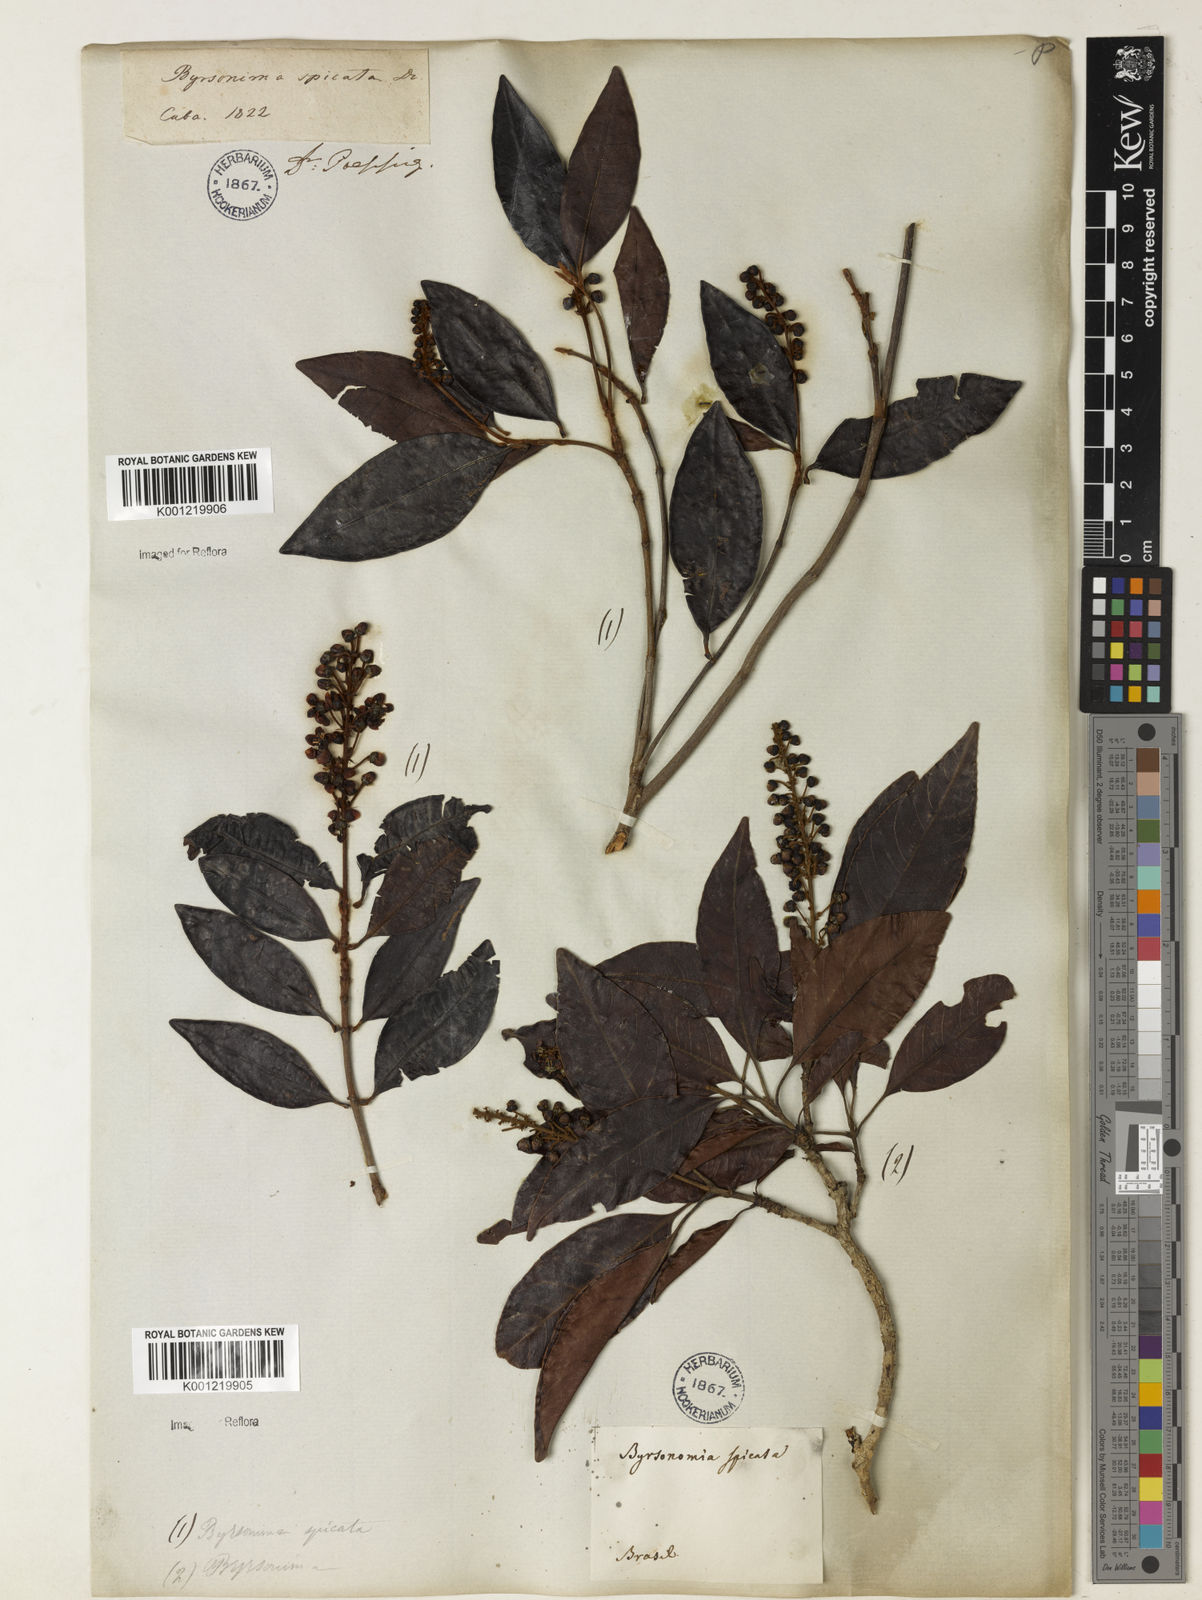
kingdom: Plantae
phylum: Tracheophyta
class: Magnoliopsida
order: Malpighiales
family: Malpighiaceae
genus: Byrsonima
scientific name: Byrsonima
